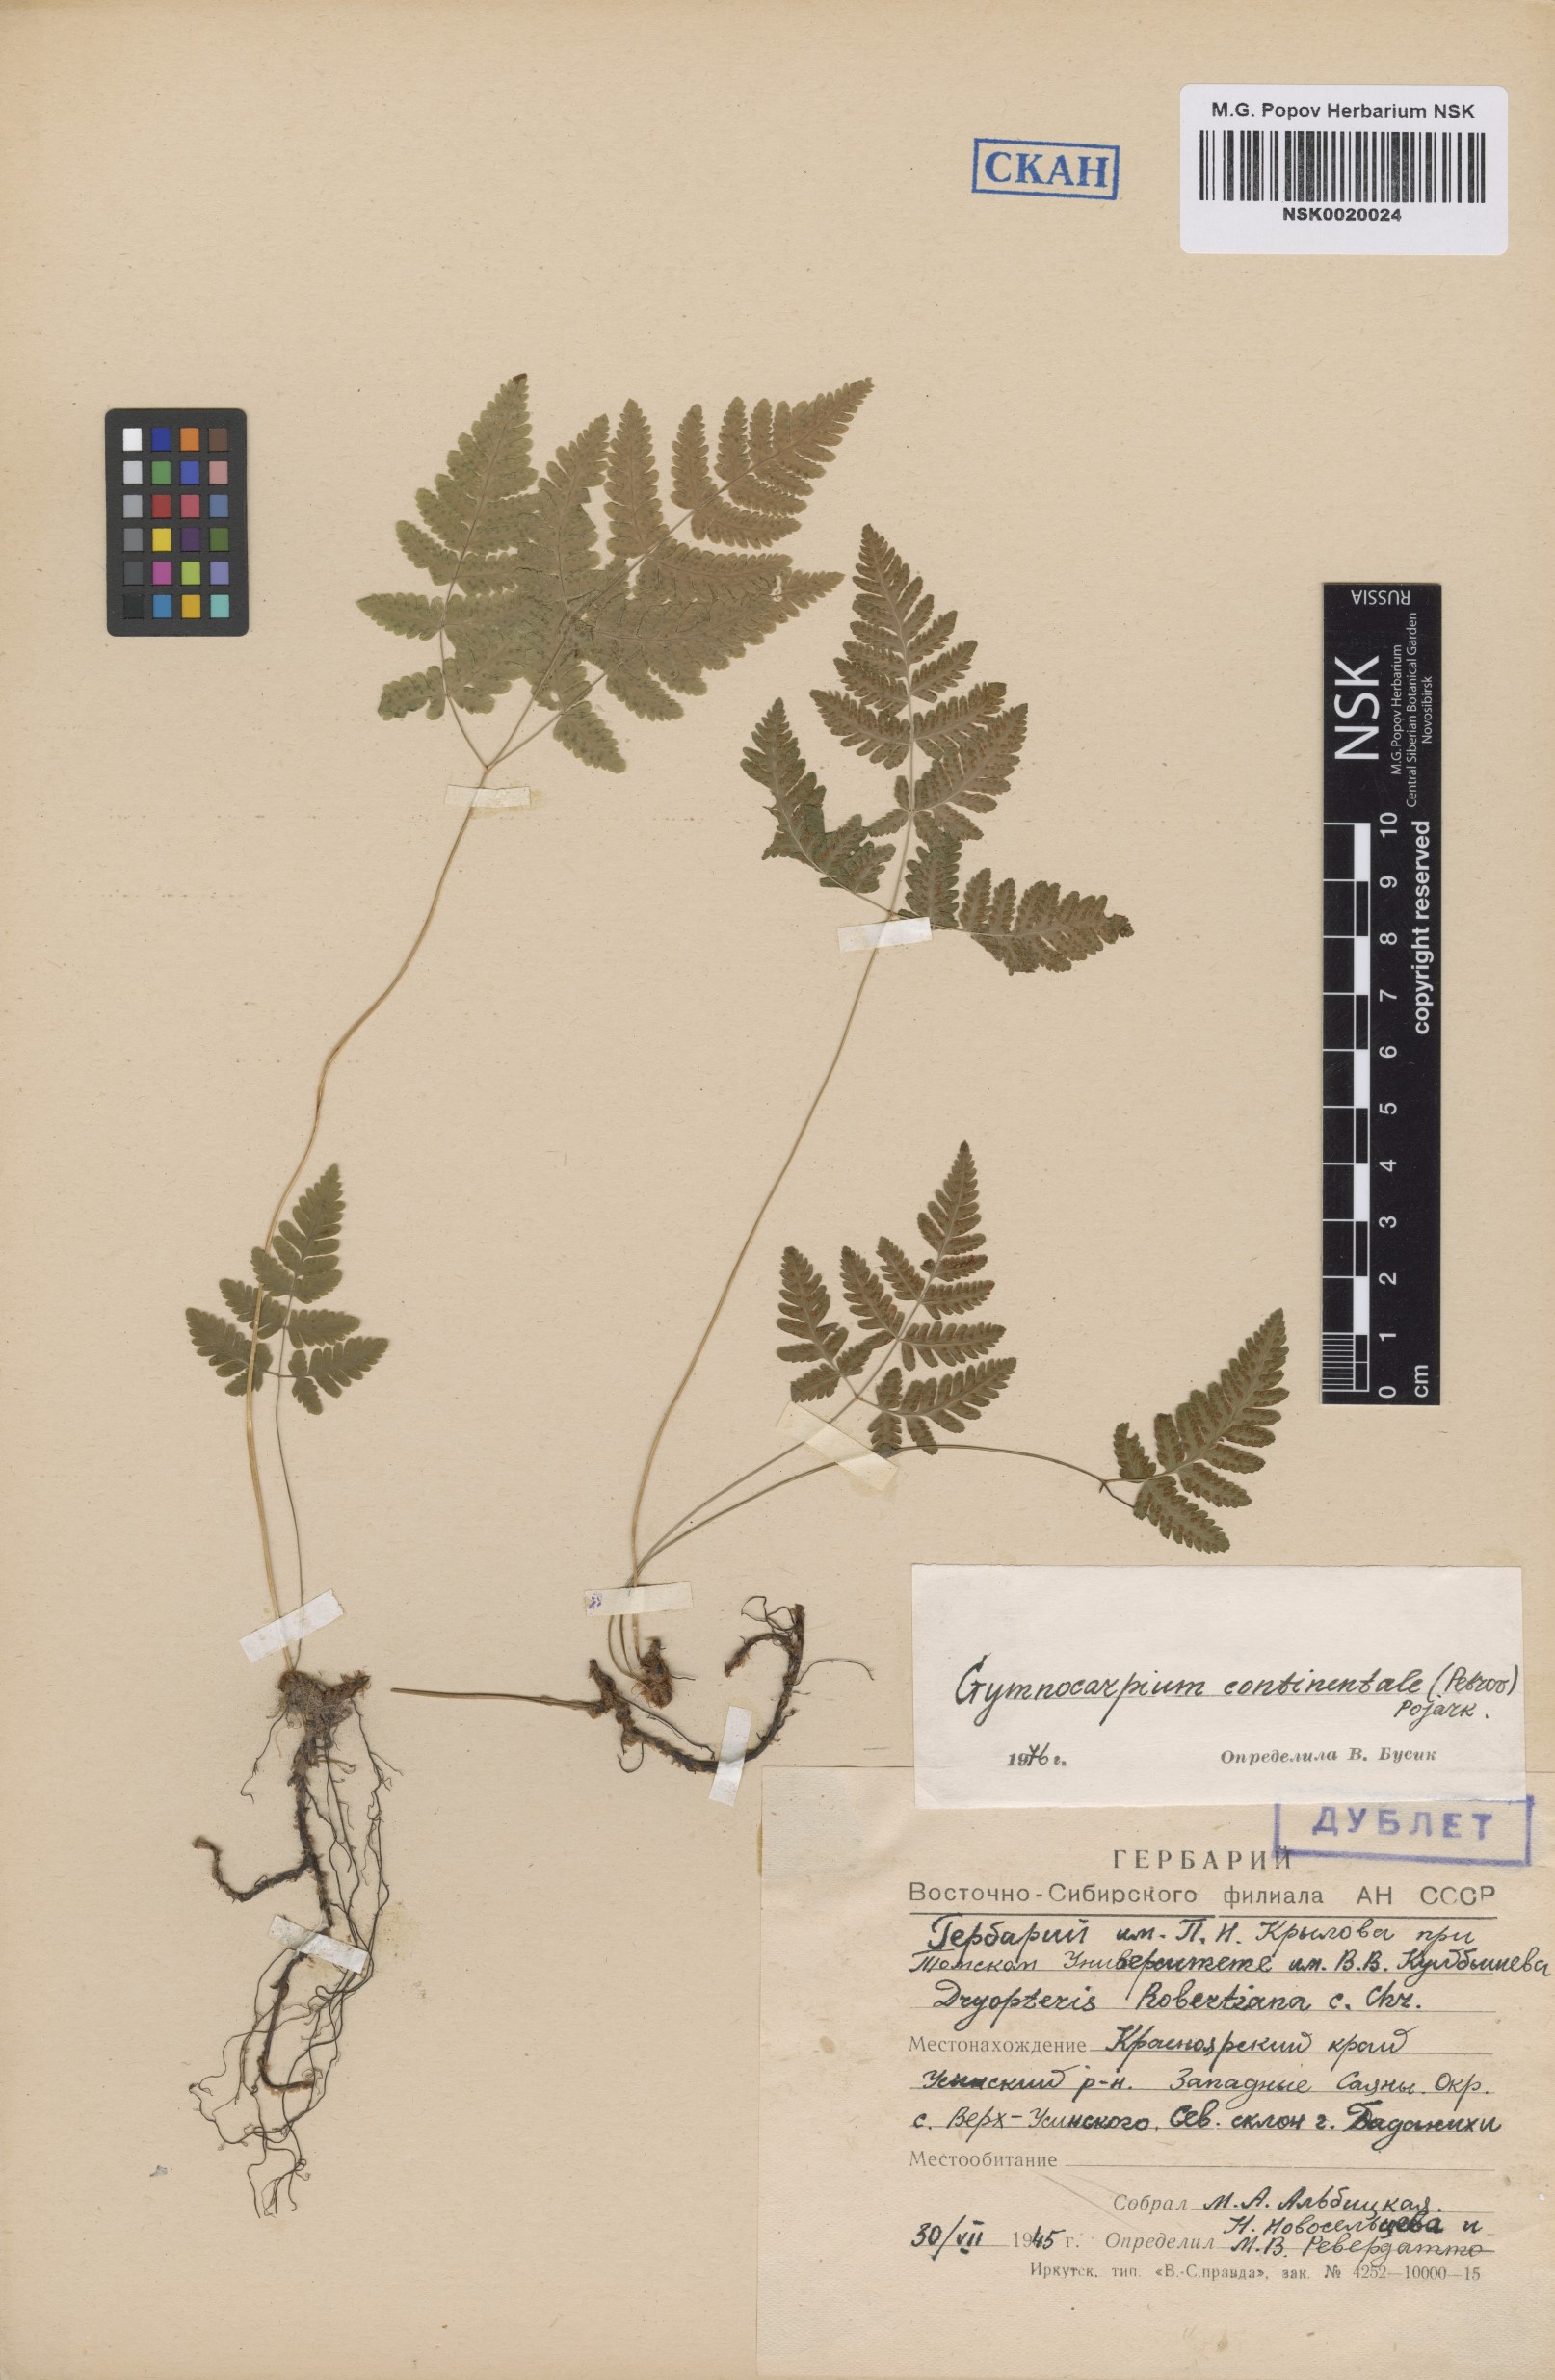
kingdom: Plantae
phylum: Tracheophyta
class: Polypodiopsida
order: Polypodiales
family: Cystopteridaceae
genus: Gymnocarpium
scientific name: Gymnocarpium continentale
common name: Asian oak fern
